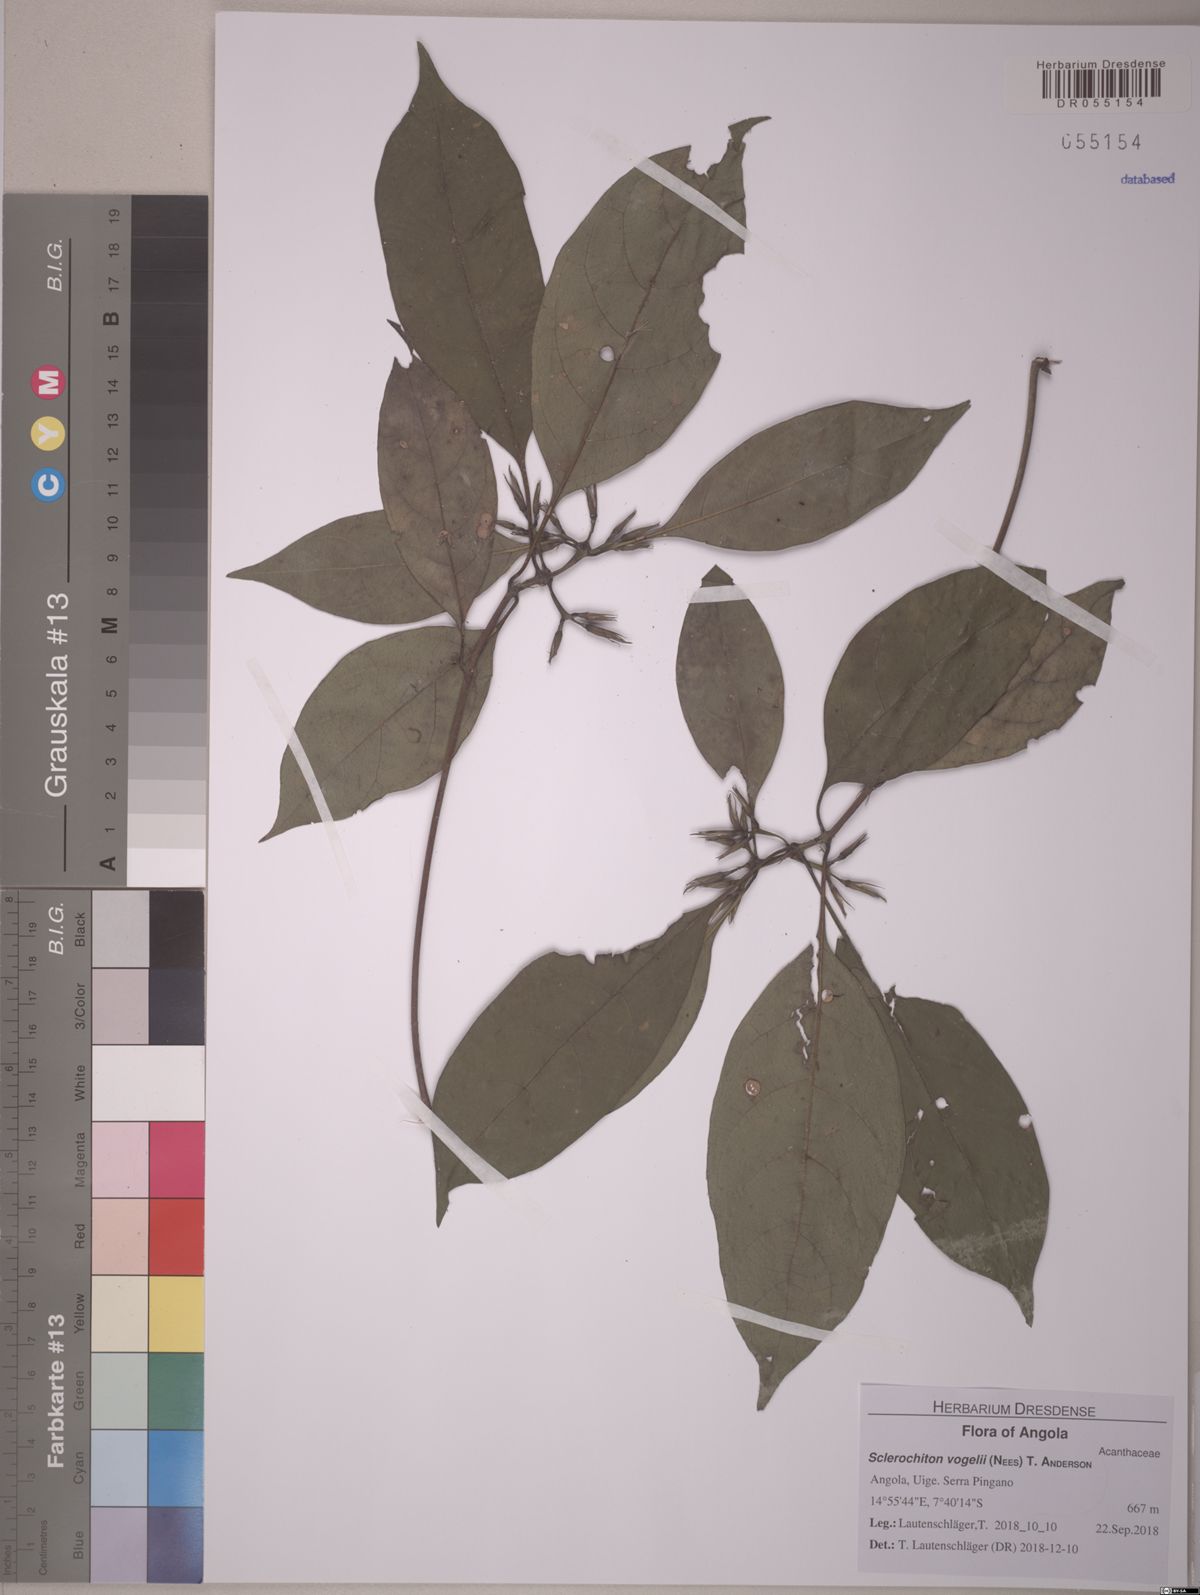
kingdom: Plantae
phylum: Tracheophyta
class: Magnoliopsida
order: Lamiales
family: Acanthaceae
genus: Sclerochiton
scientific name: Sclerochiton vogelii
